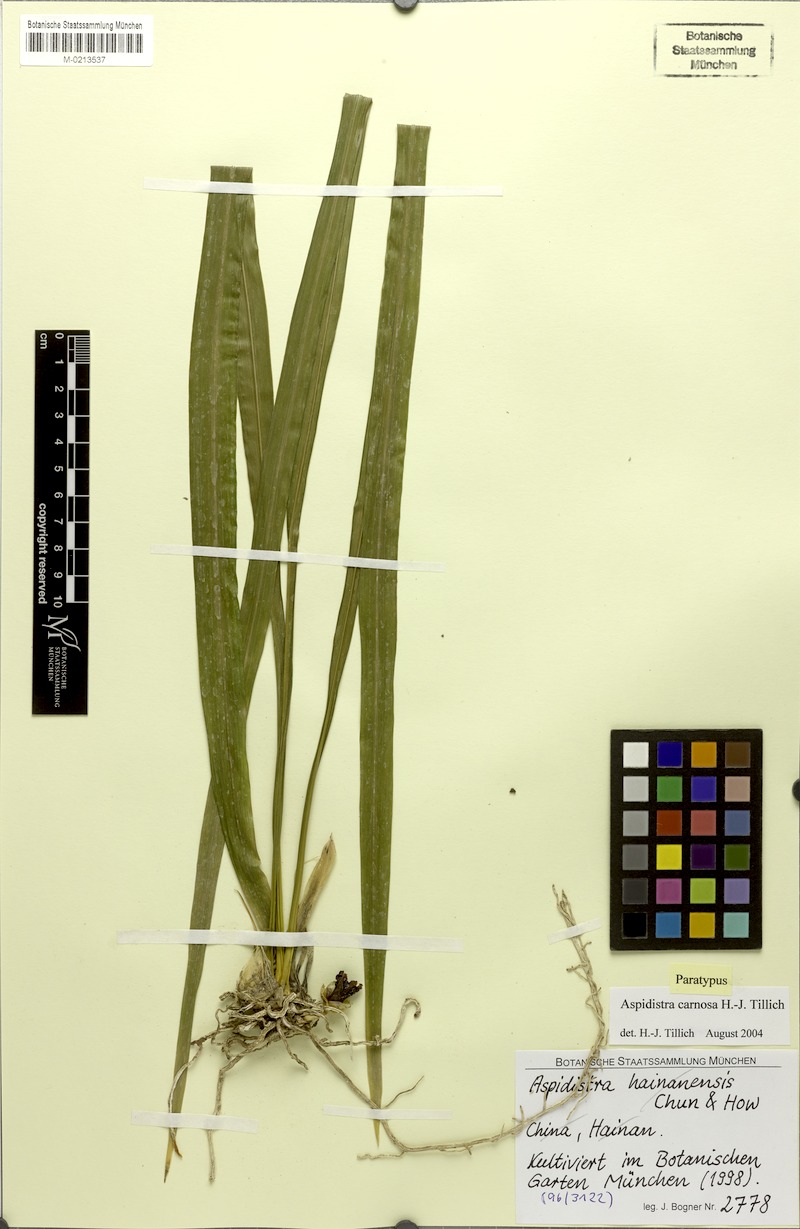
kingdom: Plantae
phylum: Tracheophyta
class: Liliopsida
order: Asparagales
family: Asparagaceae
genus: Aspidistra
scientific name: Aspidistra carnosa
